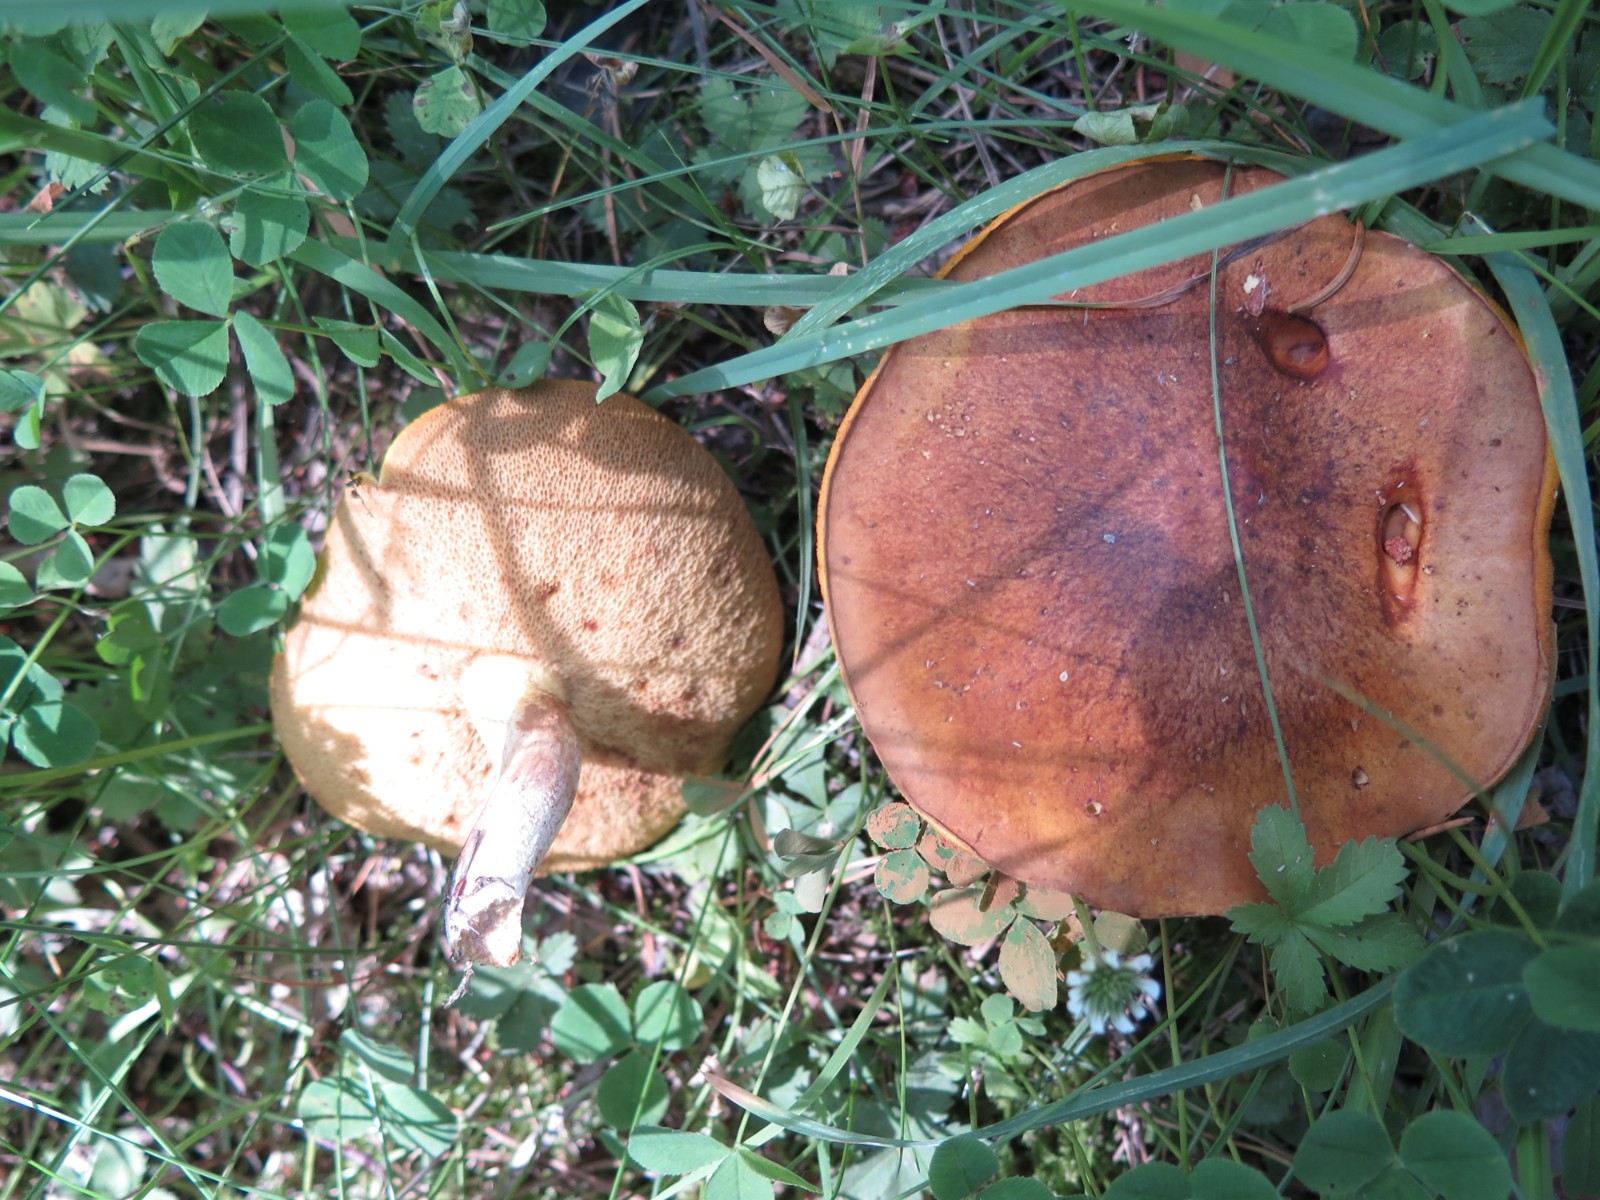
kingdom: Fungi
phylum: Basidiomycota
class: Agaricomycetes
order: Boletales
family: Suillaceae
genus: Suillus
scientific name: Suillus granulatus
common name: kornet slimrørhat
